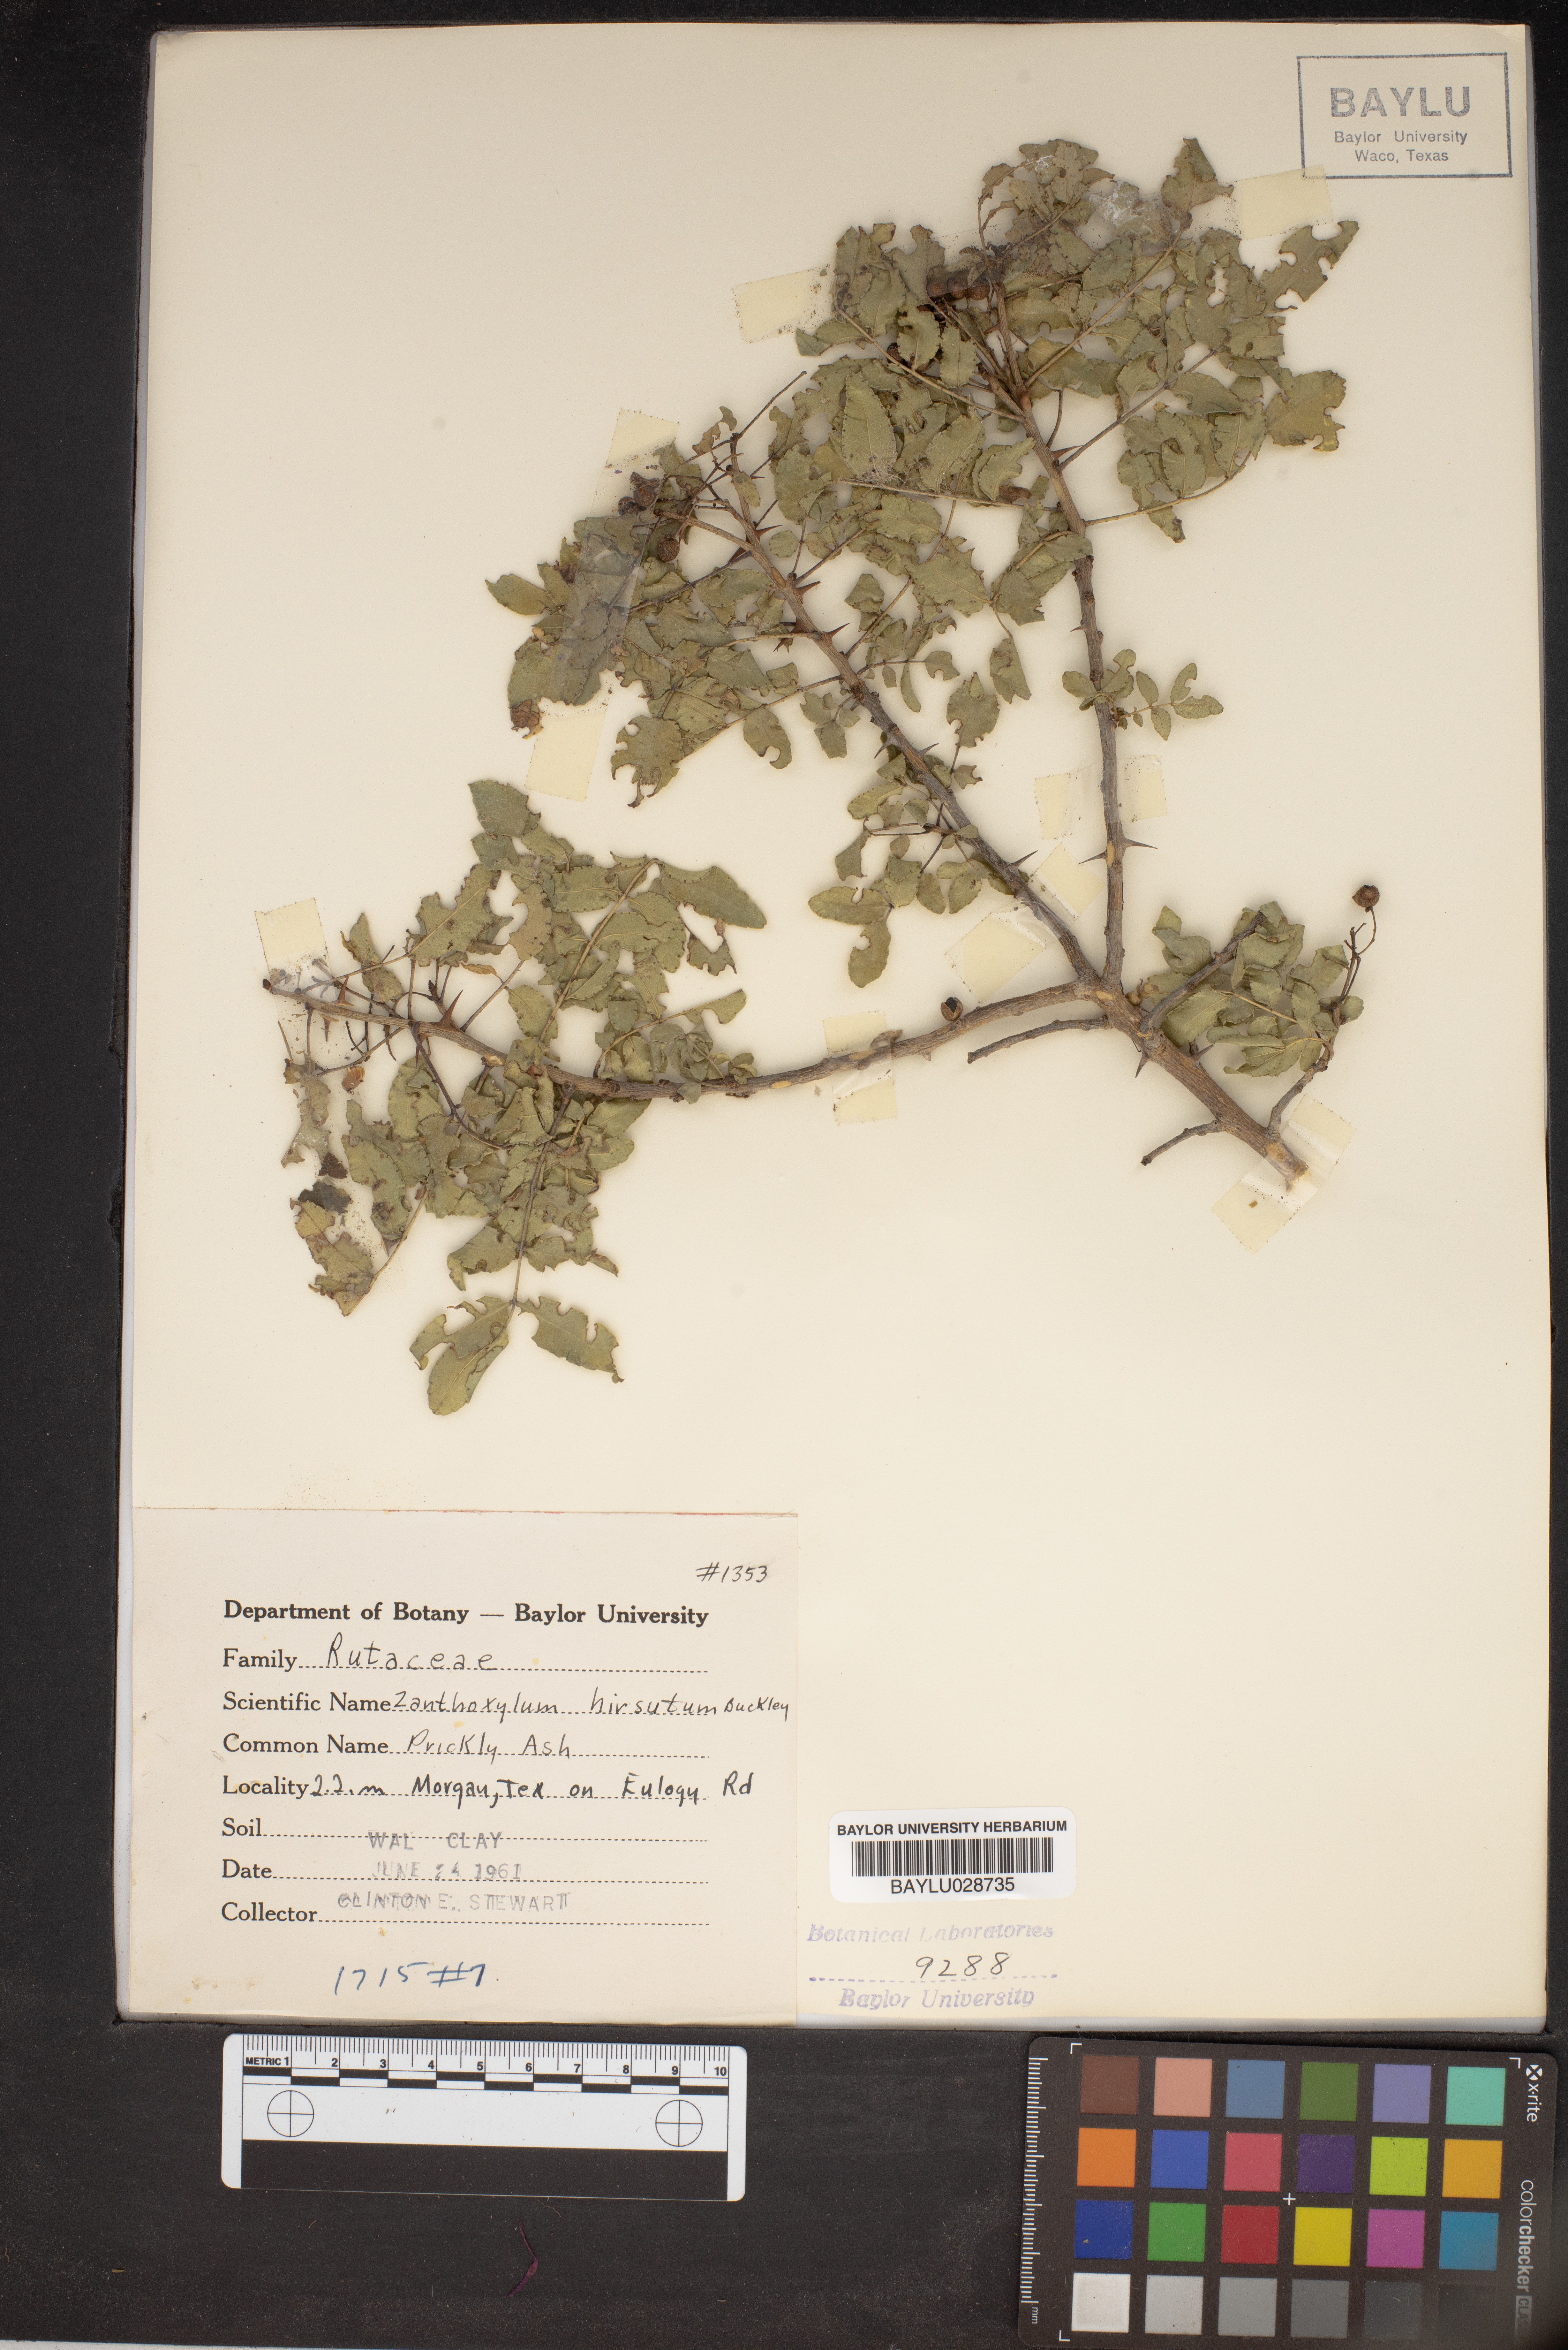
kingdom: Plantae
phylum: Tracheophyta
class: Magnoliopsida
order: Sapindales
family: Rutaceae
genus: Zanthoxylum
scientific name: Zanthoxylum clava-herculis
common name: Hercules'-club
